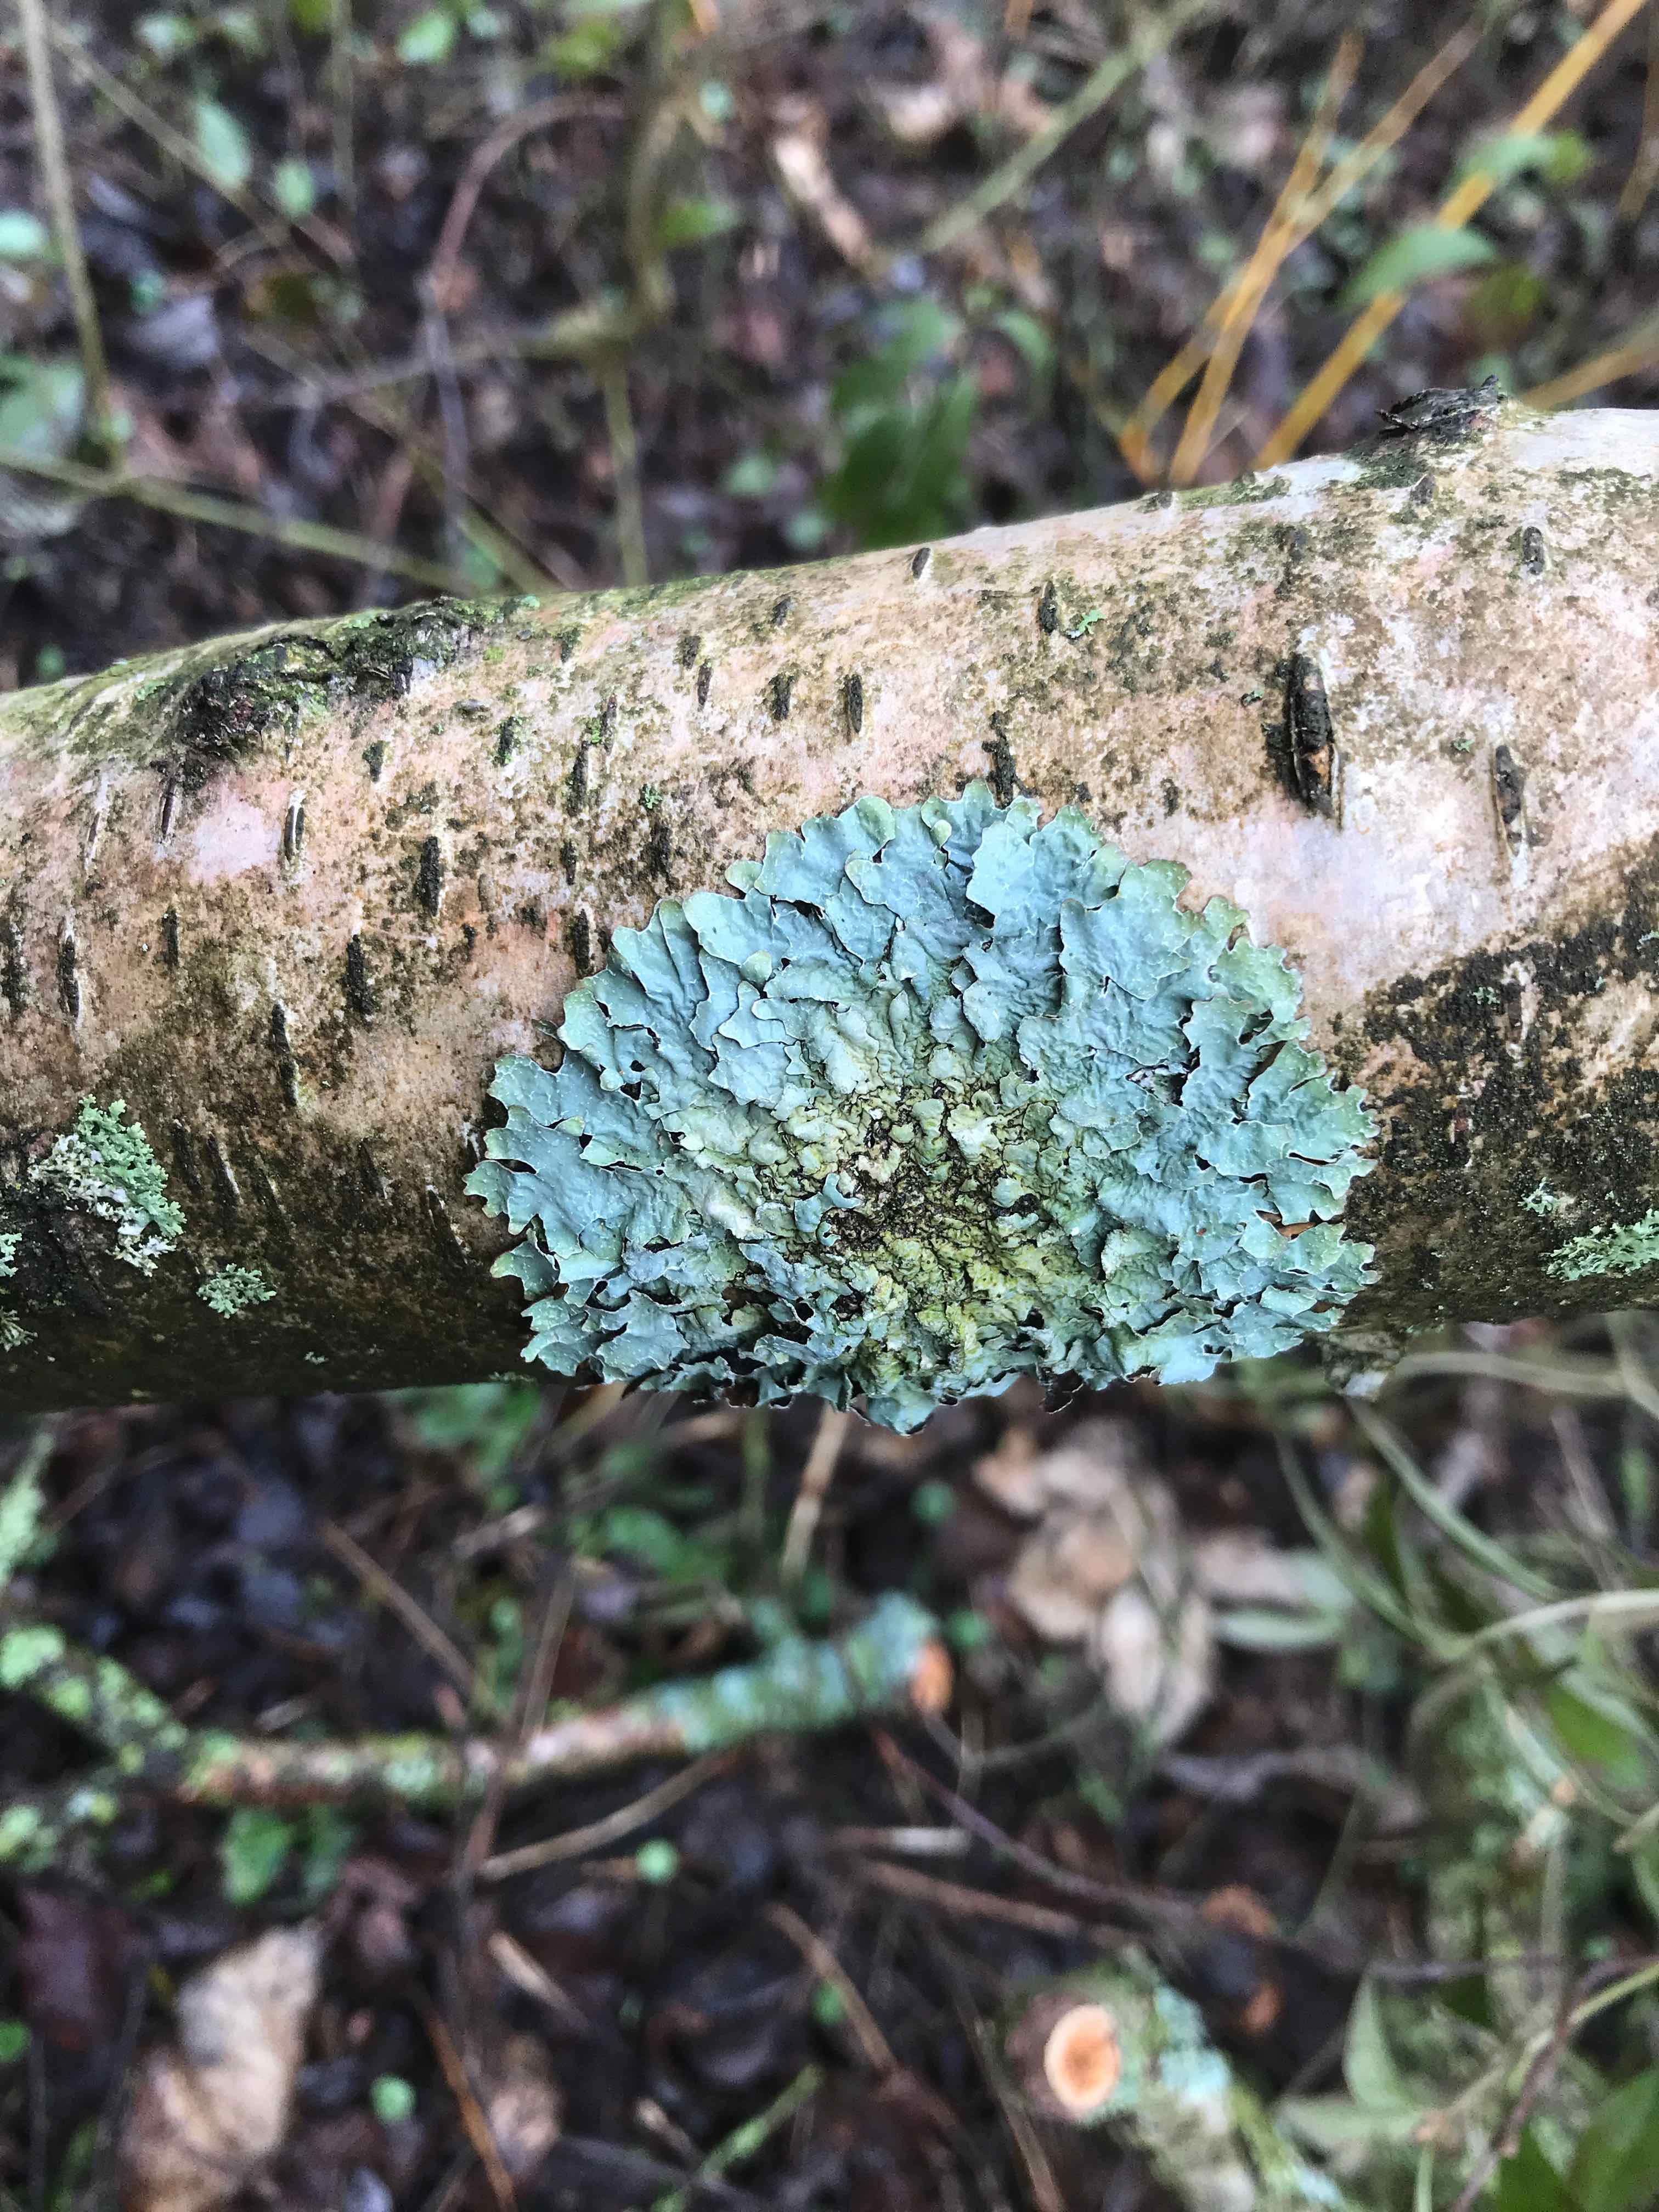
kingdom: Fungi
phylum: Ascomycota
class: Lecanoromycetes
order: Lecanorales
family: Parmeliaceae
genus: Parmelia
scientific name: Parmelia sulcata
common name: rynket skållav
